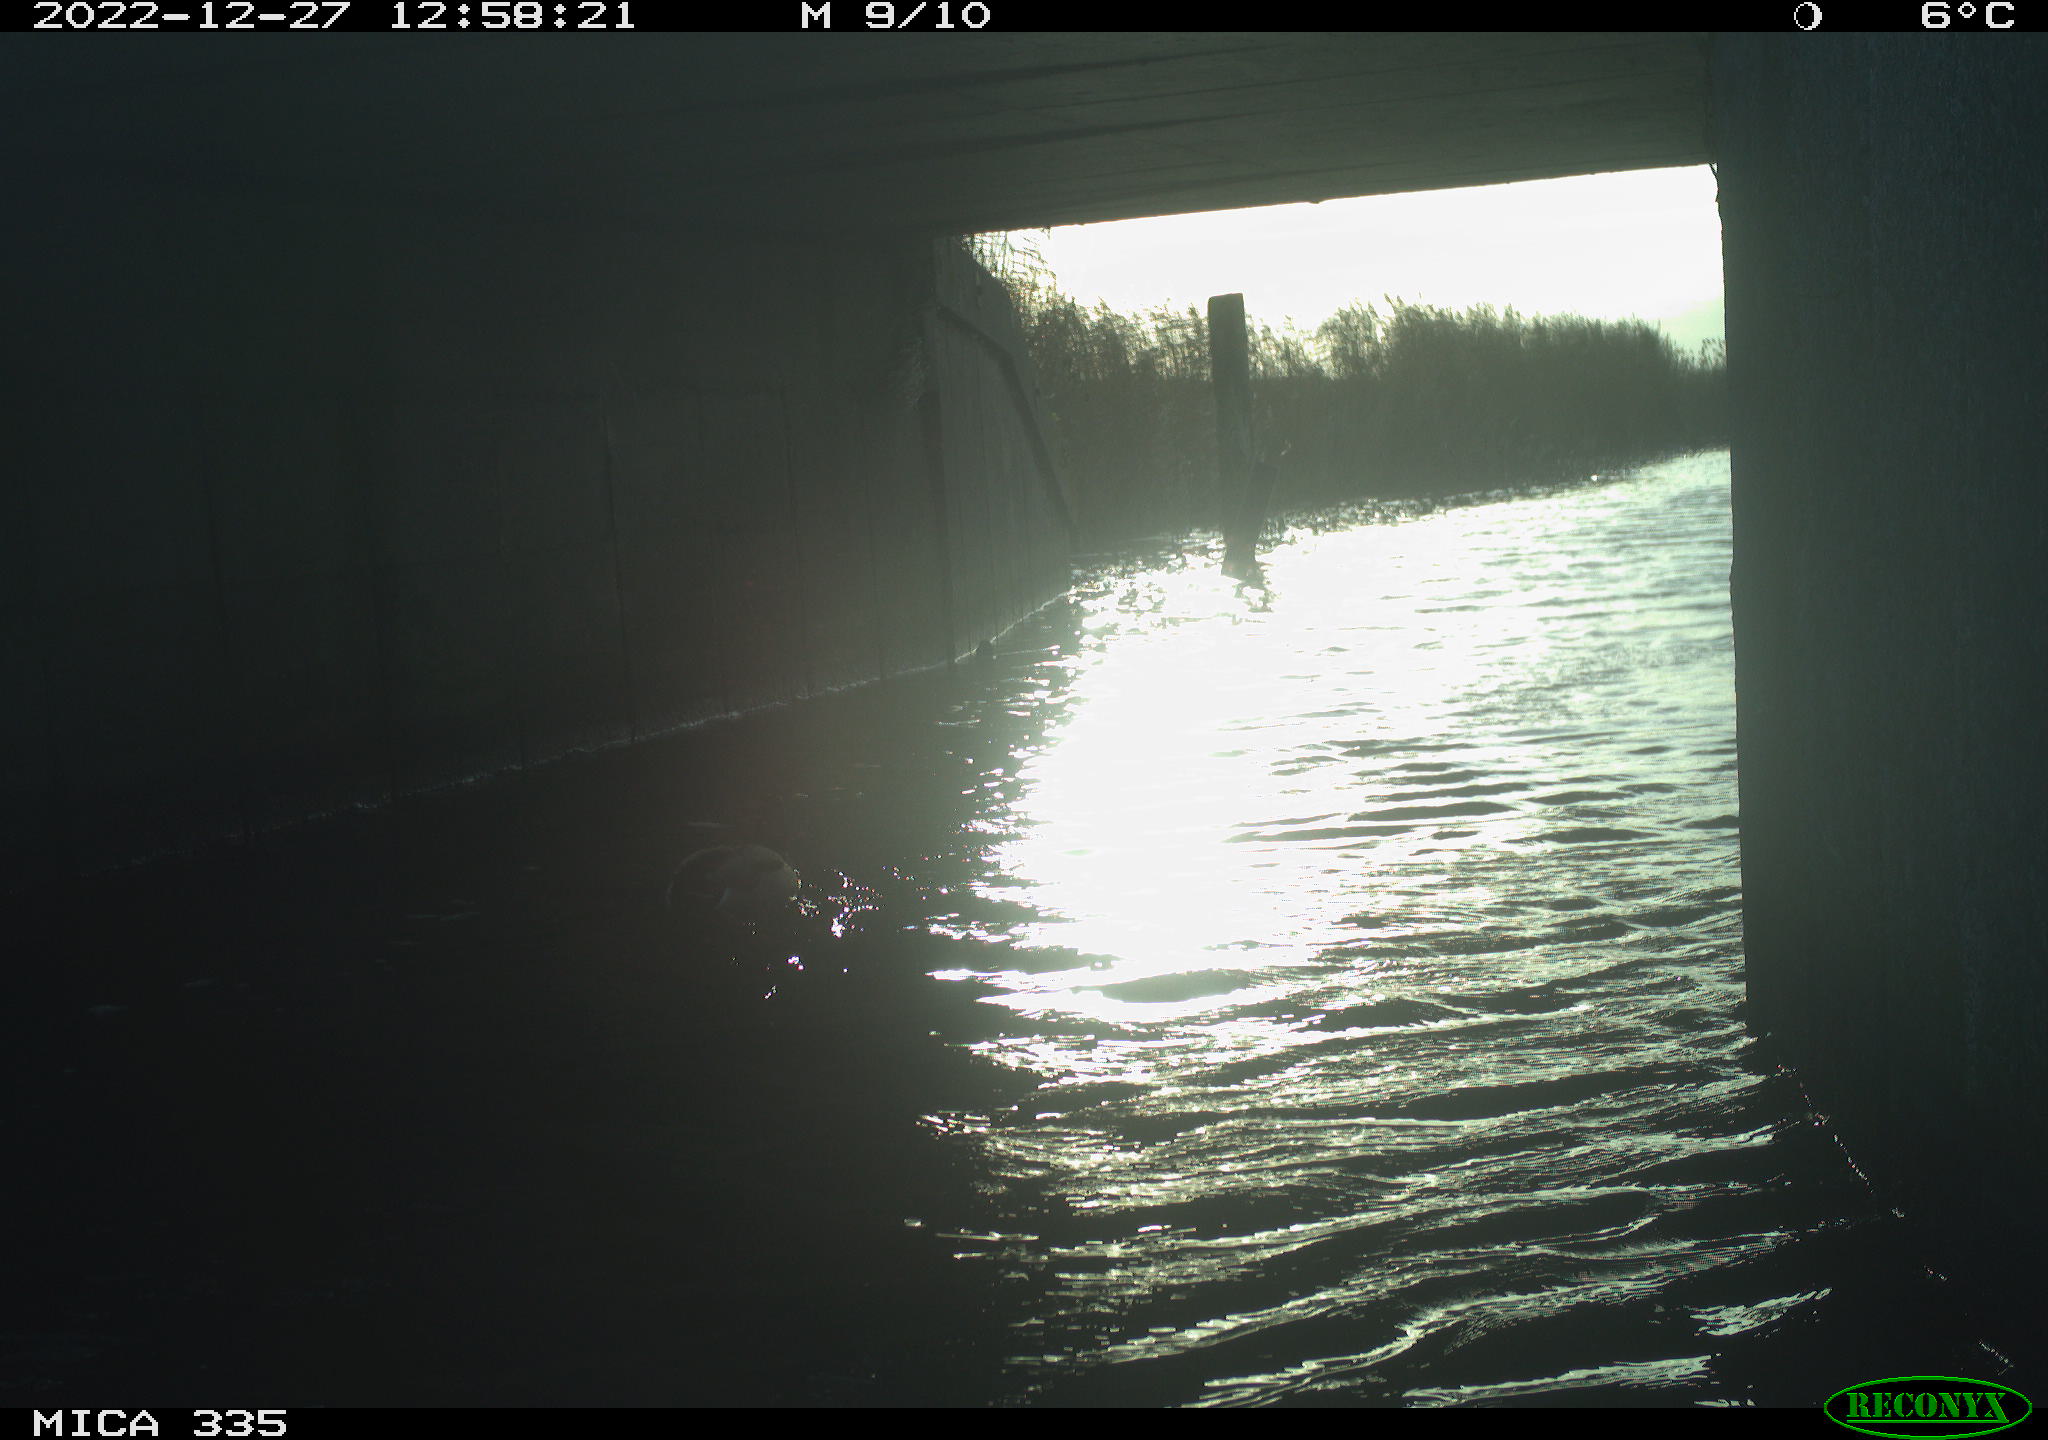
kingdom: Animalia
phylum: Chordata
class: Aves
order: Anseriformes
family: Anatidae
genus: Anas
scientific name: Anas
